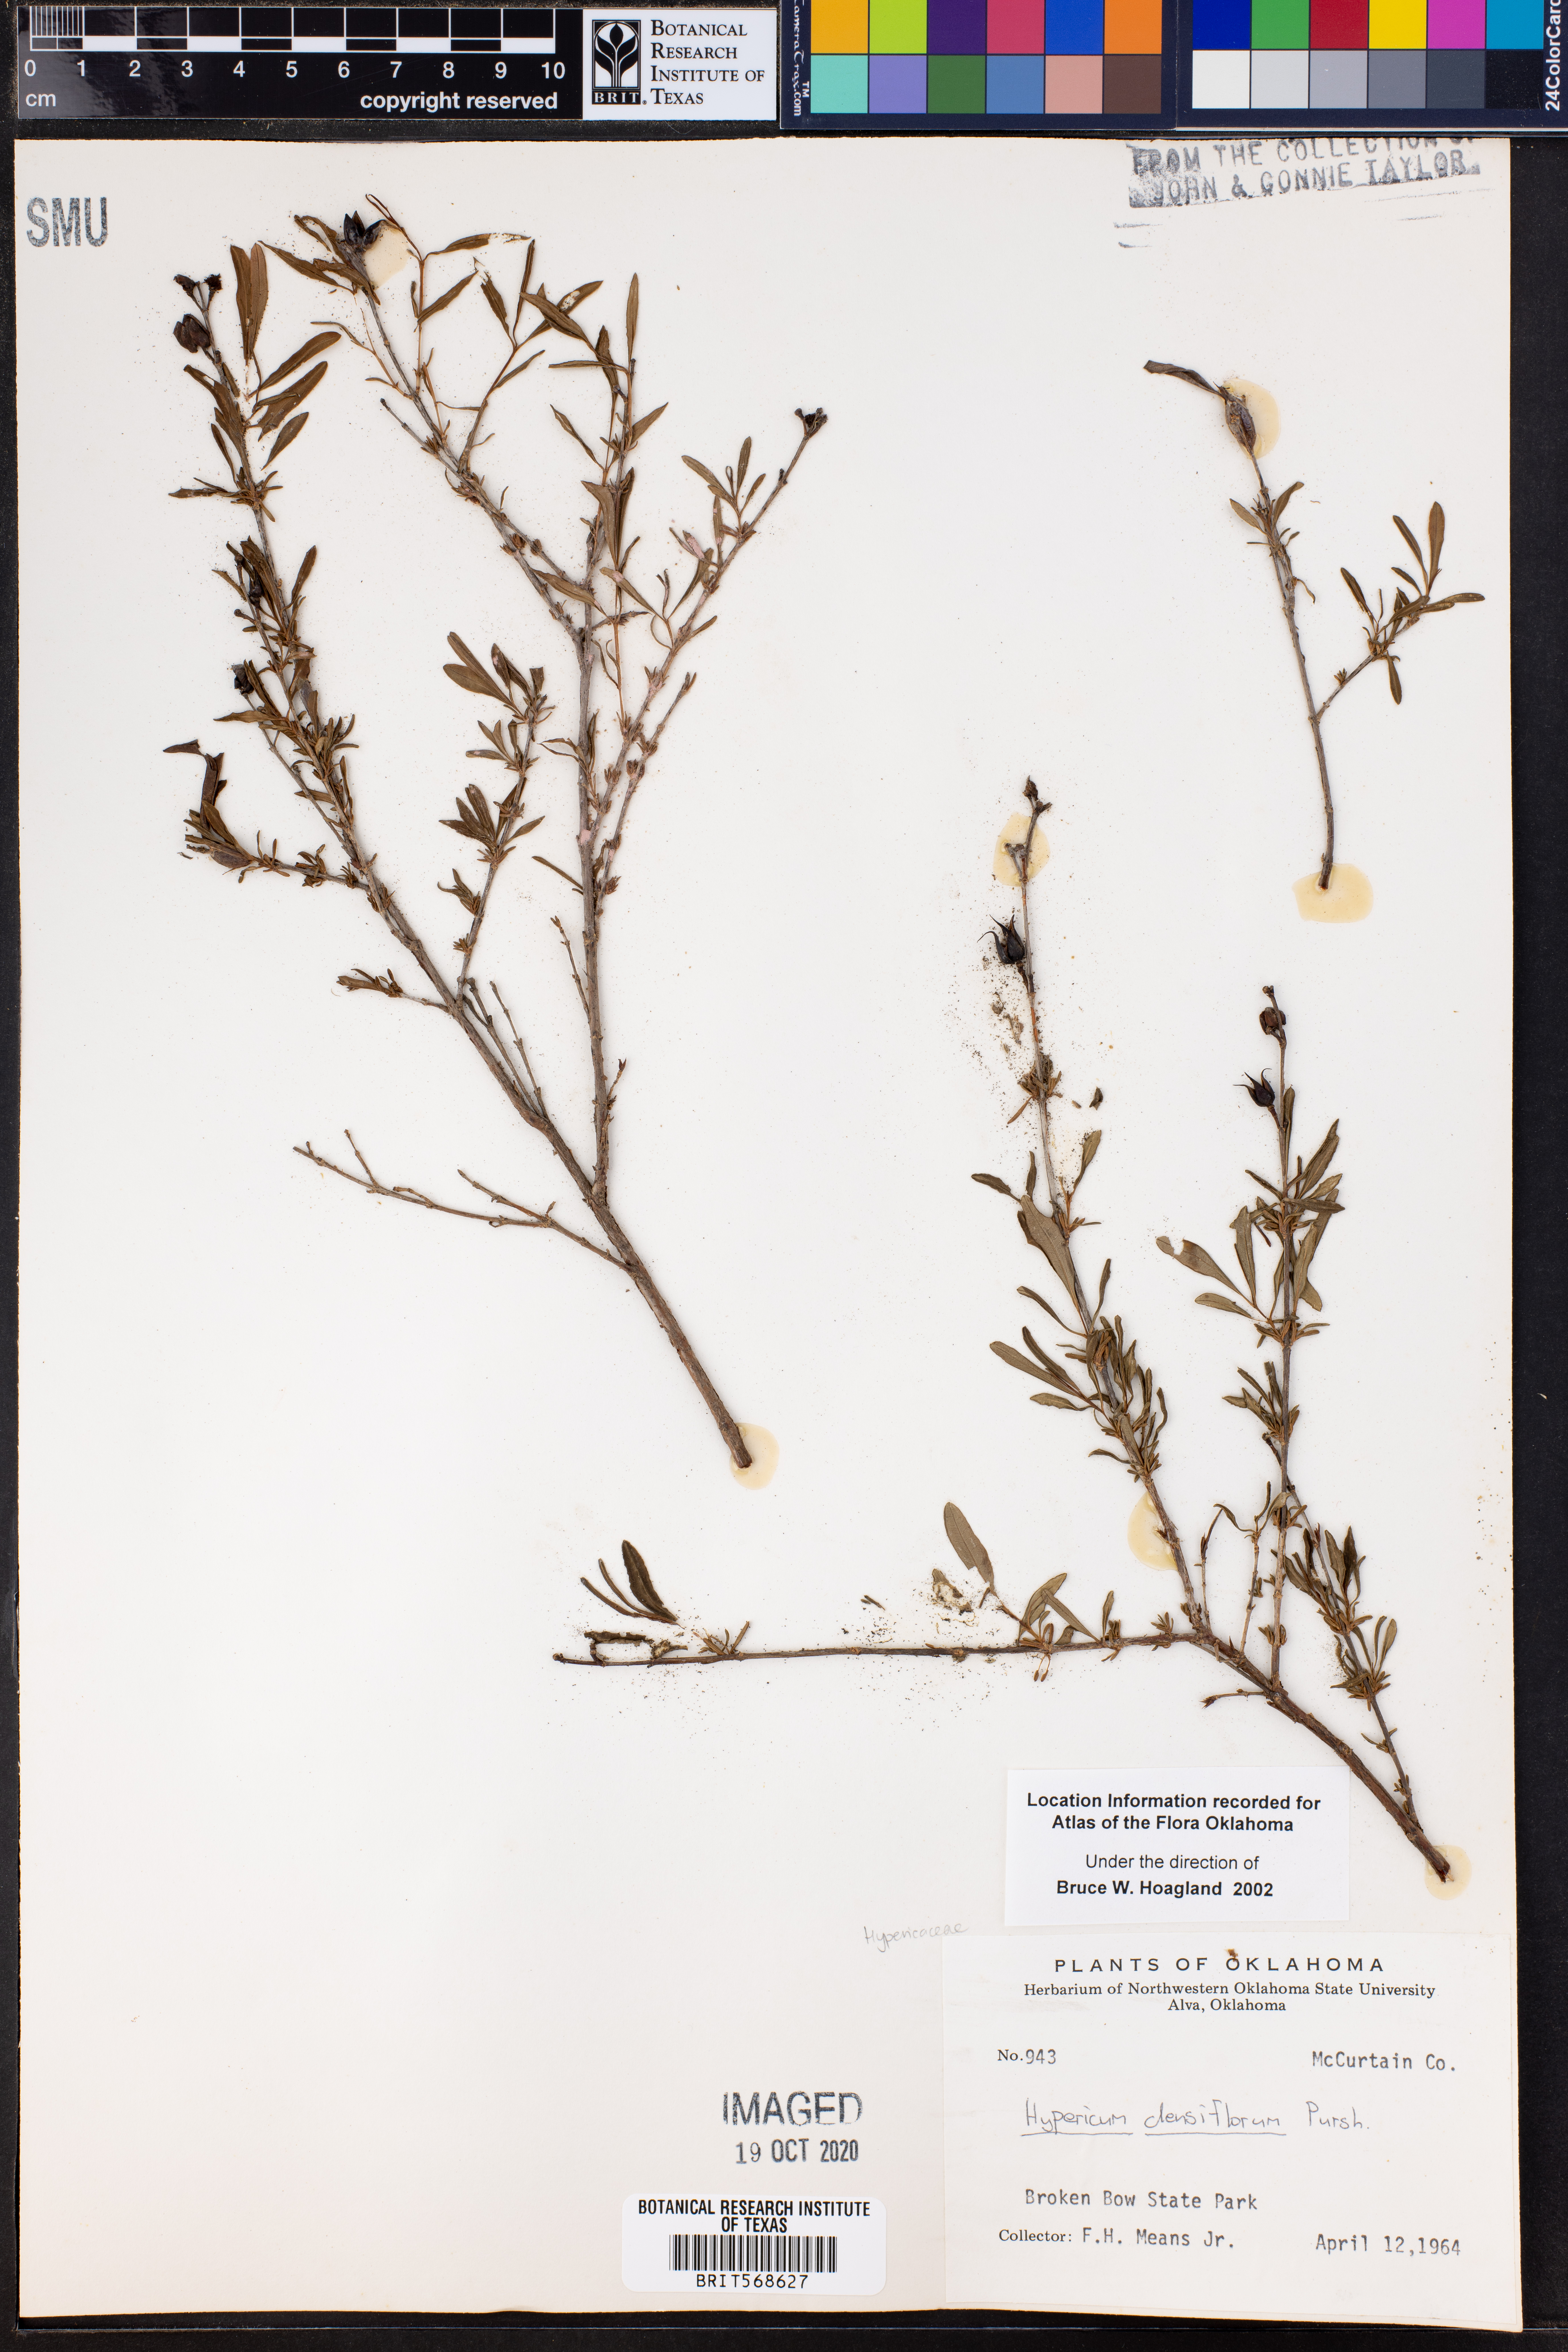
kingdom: Plantae
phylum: Tracheophyta
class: Magnoliopsida
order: Malpighiales
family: Hypericaceae
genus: Hypericum
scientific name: Hypericum densiflorum
